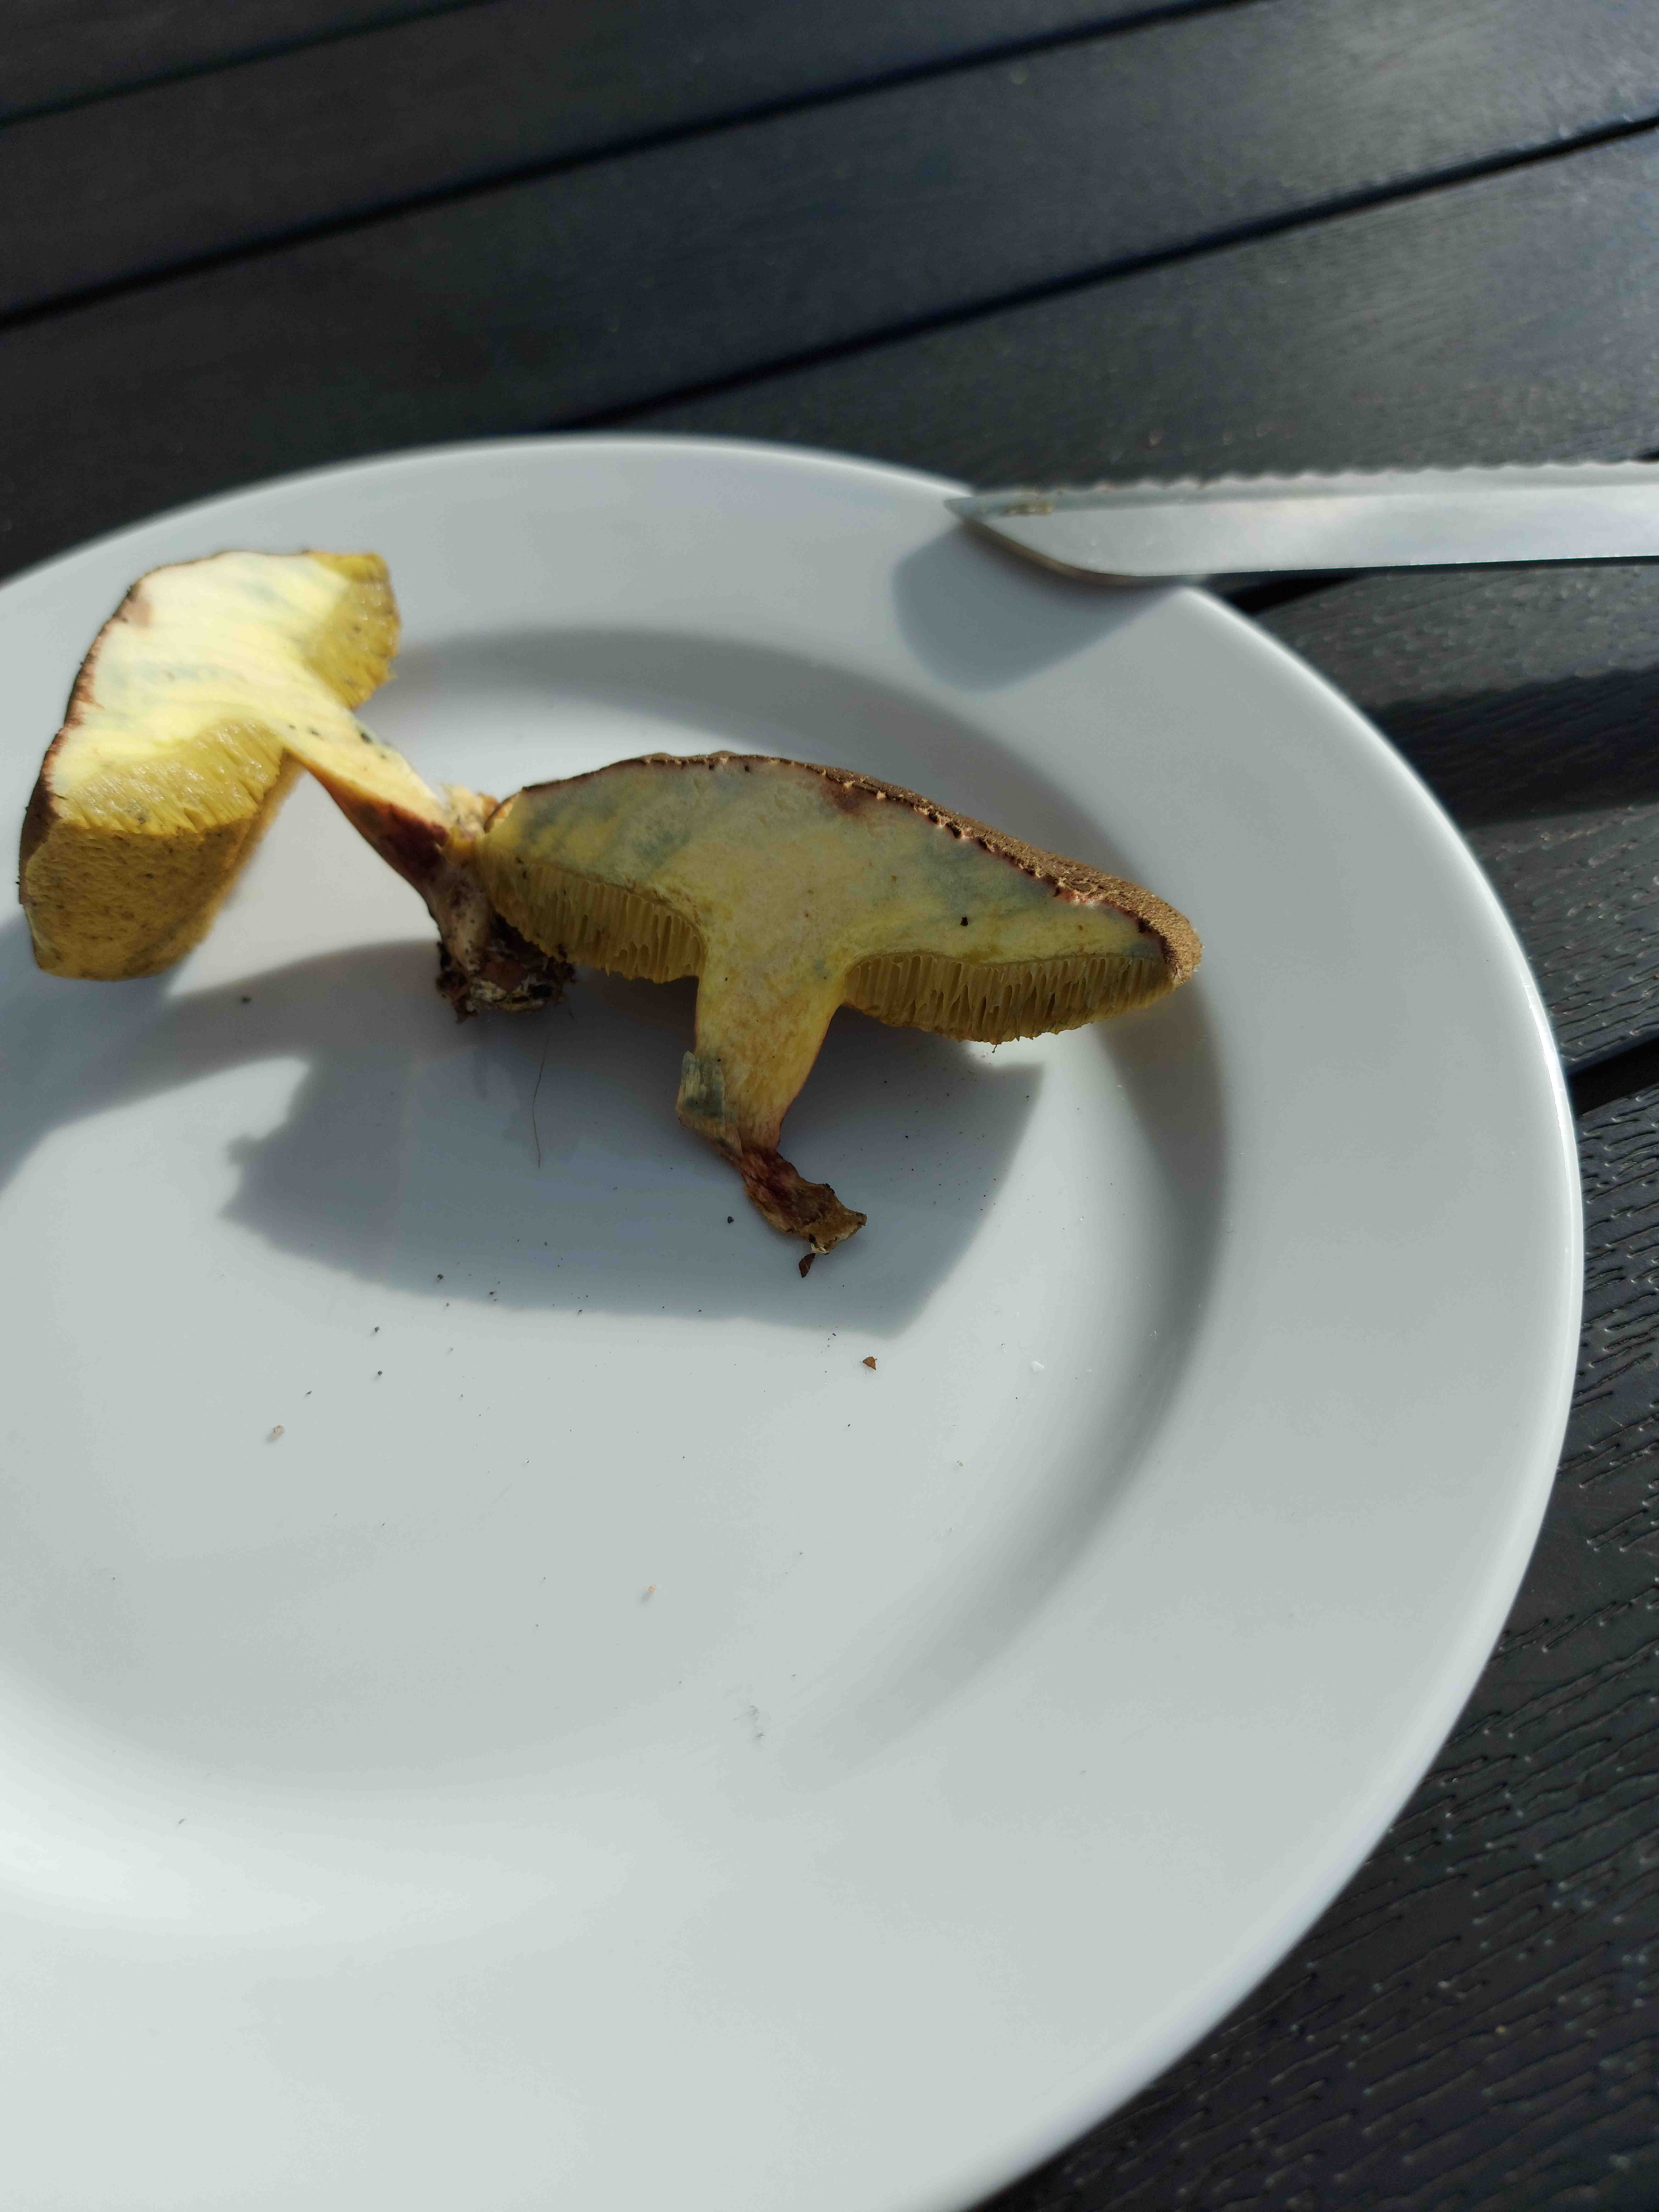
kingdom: Fungi
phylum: Basidiomycota
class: Agaricomycetes
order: Boletales
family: Boletaceae
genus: Xerocomus
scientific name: Xerocomus
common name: filtrørhat
